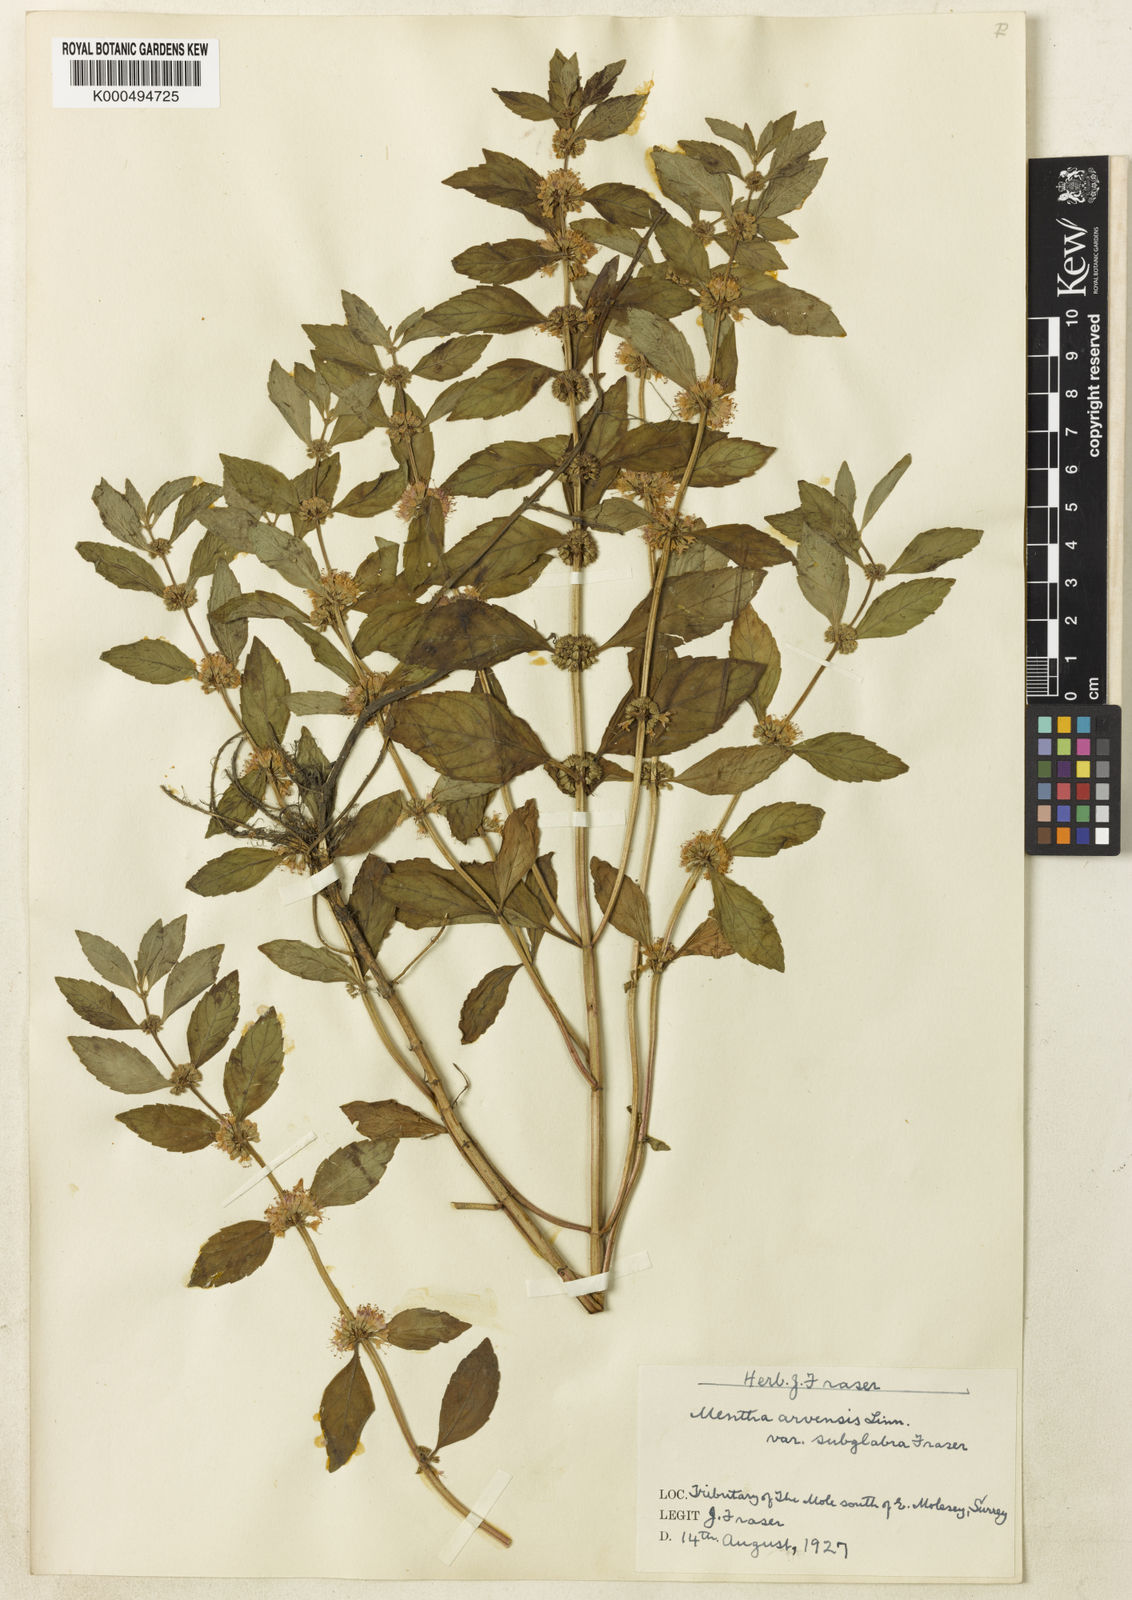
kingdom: Plantae
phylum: Tracheophyta
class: Magnoliopsida
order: Lamiales
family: Lamiaceae
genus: Mentha
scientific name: Mentha arvensis
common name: Corn mint
